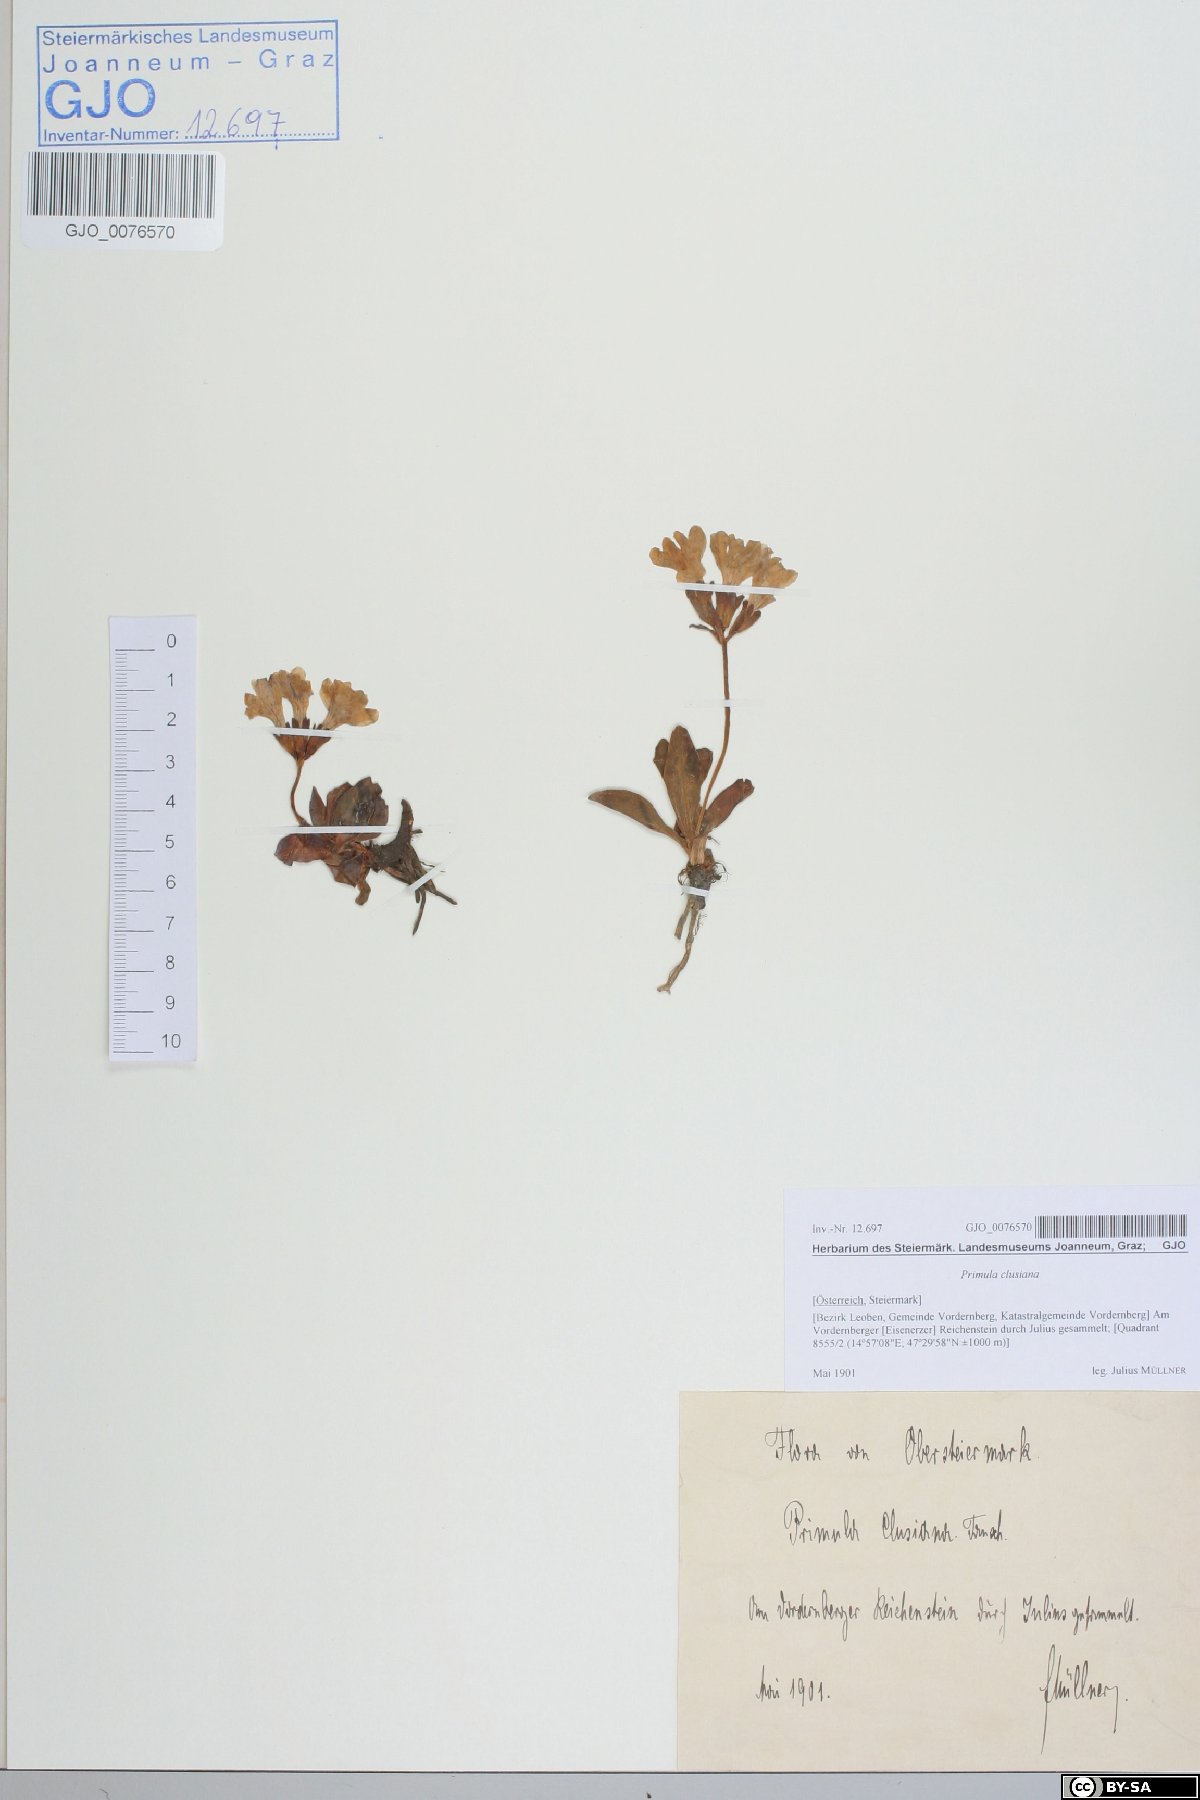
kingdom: Plantae
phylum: Tracheophyta
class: Magnoliopsida
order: Ericales
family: Primulaceae
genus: Primula
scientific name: Primula clusiana
